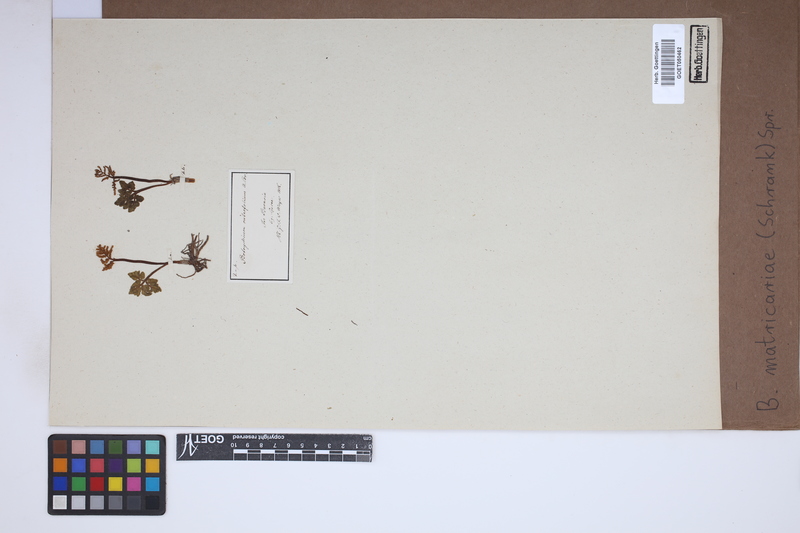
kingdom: Plantae
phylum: Tracheophyta
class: Polypodiopsida
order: Ophioglossales
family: Ophioglossaceae
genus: Sceptridium
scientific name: Sceptridium multifidum
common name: Leathery grape fern
